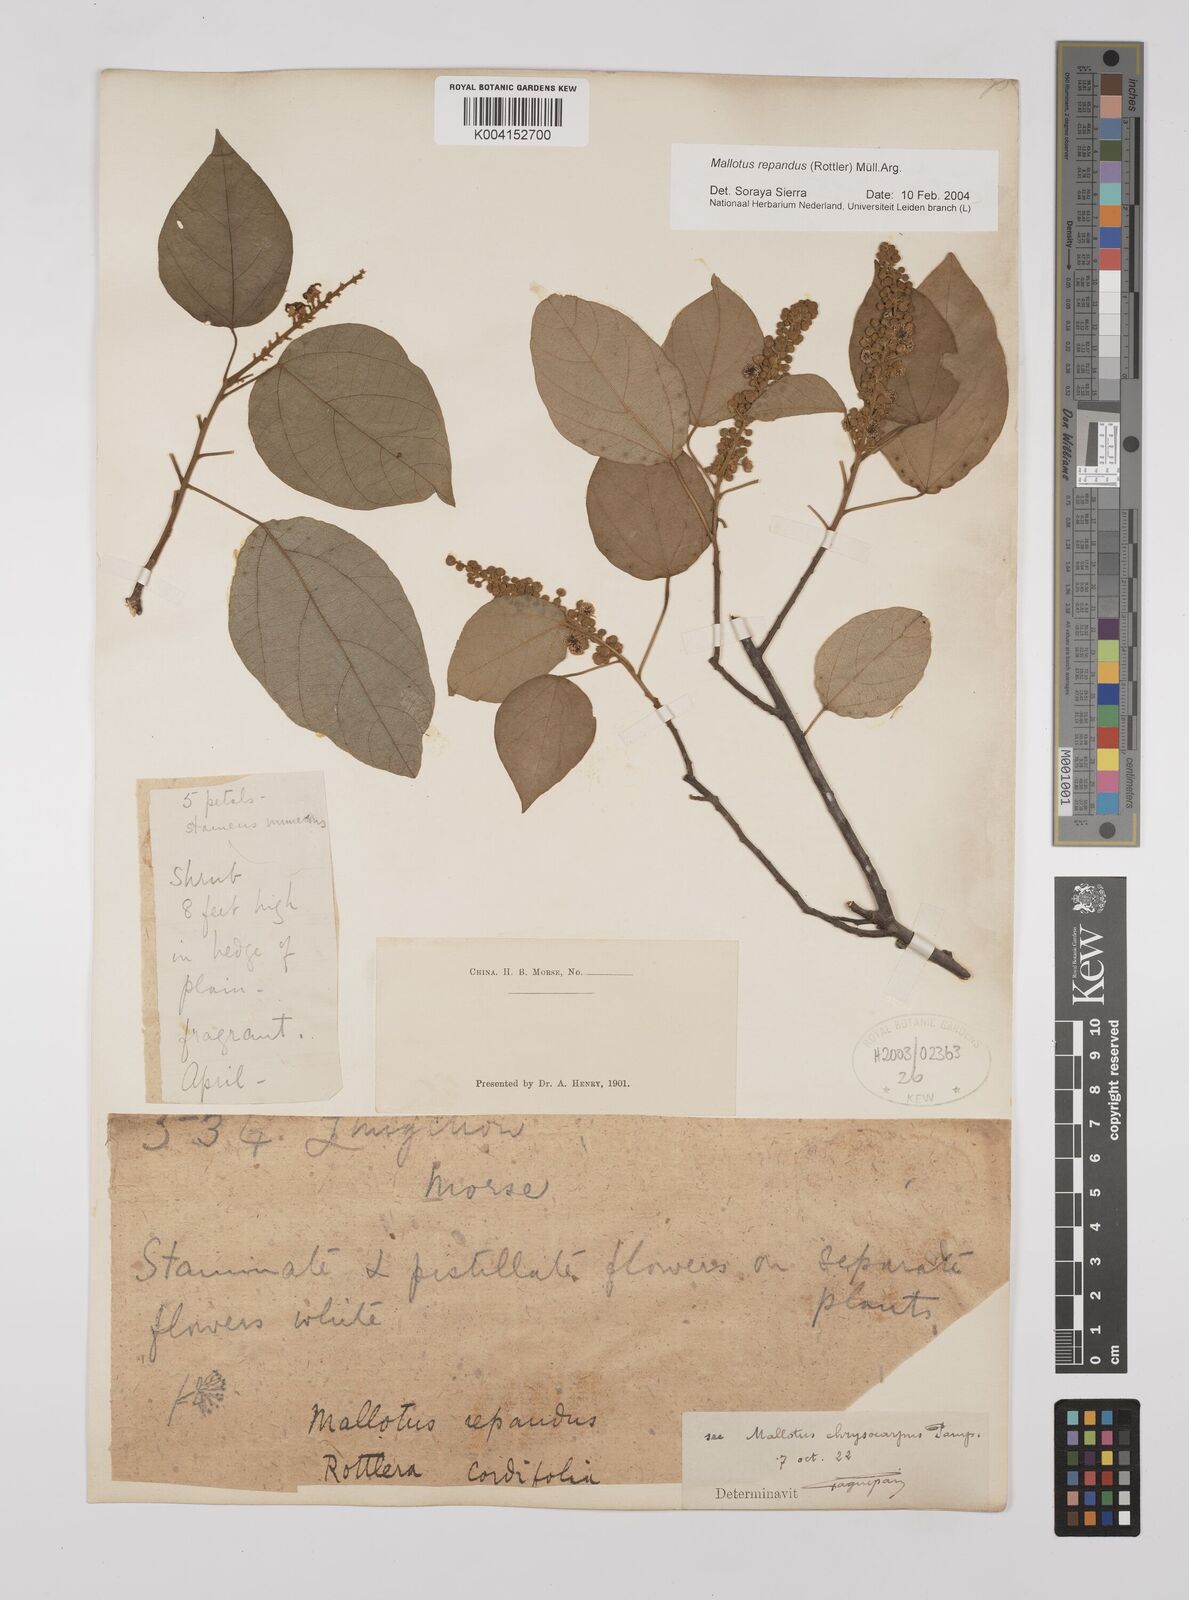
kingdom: Plantae
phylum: Tracheophyta
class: Magnoliopsida
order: Malpighiales
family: Euphorbiaceae
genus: Mallotus
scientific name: Mallotus repandus
